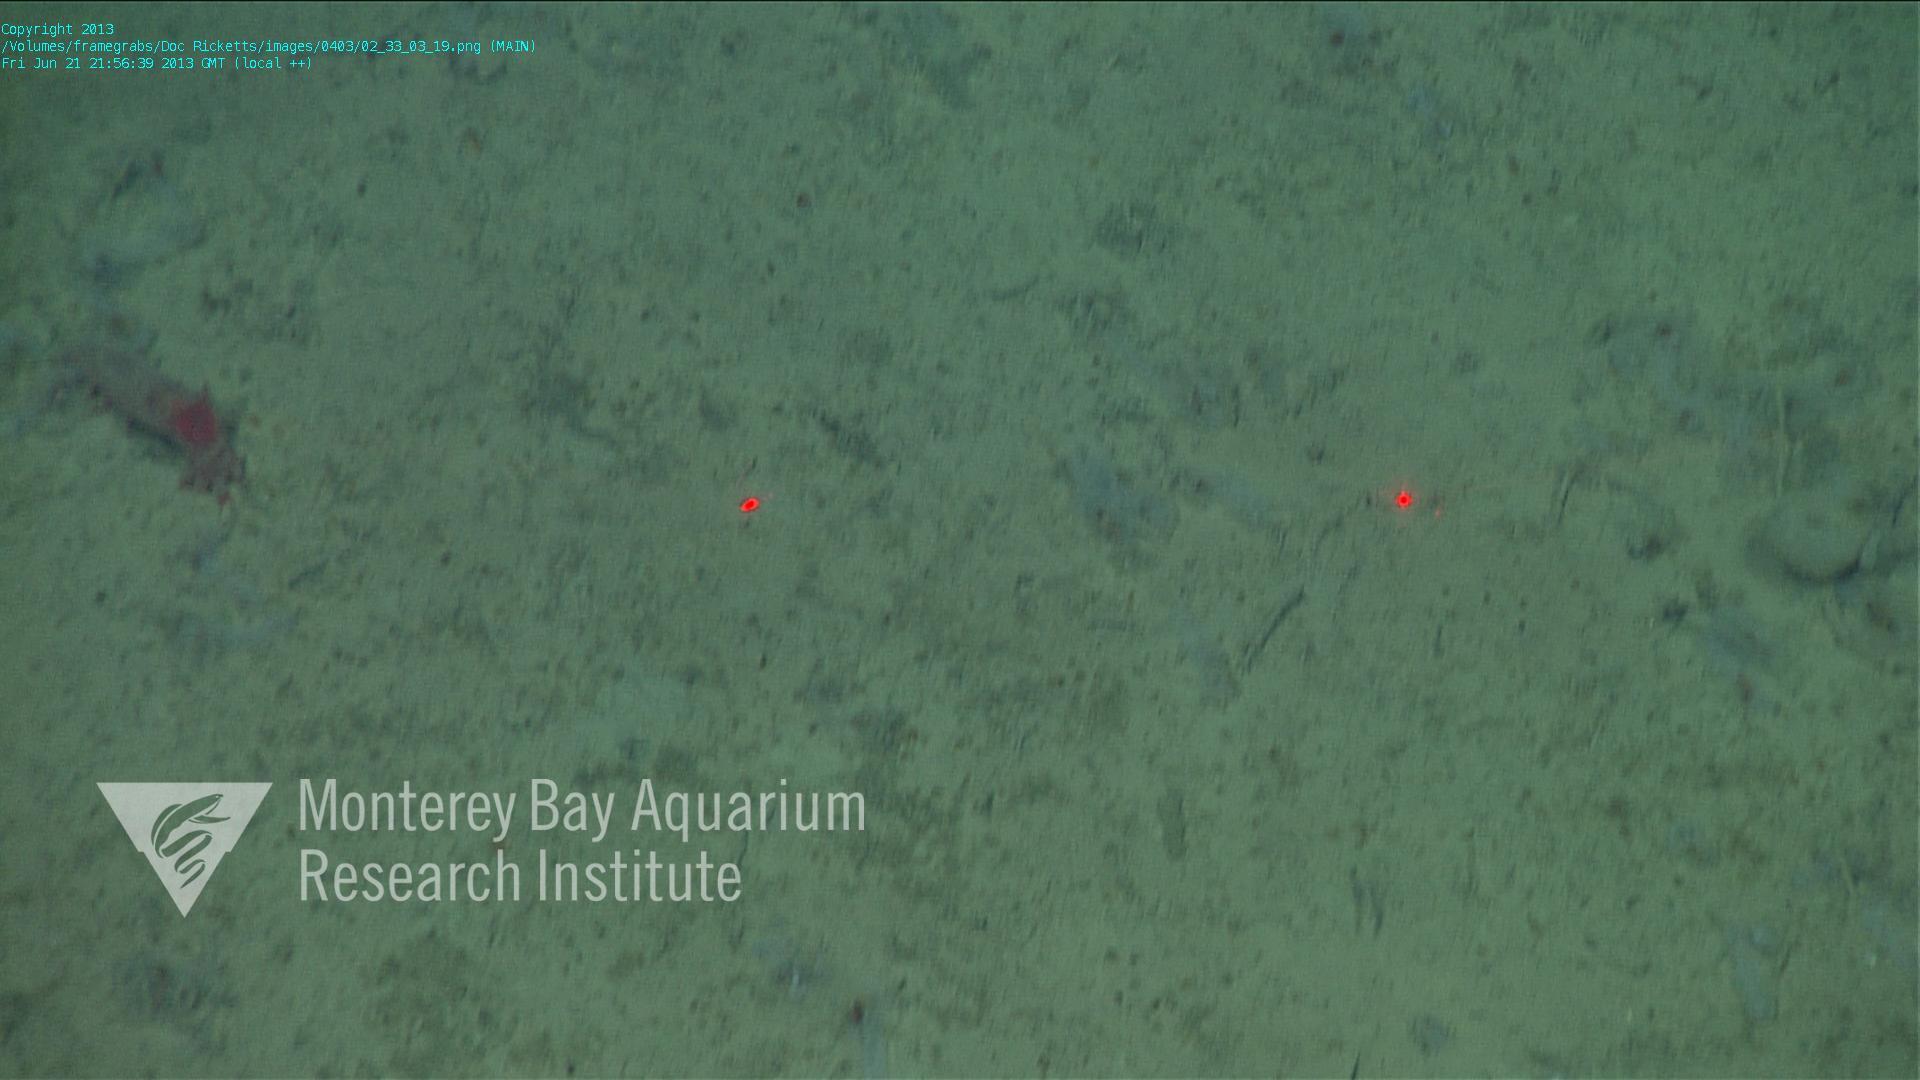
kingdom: Animalia
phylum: Porifera
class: Hexactinellida
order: Lyssacinosida
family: Rossellidae
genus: Bathydorus
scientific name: Bathydorus spinosus
